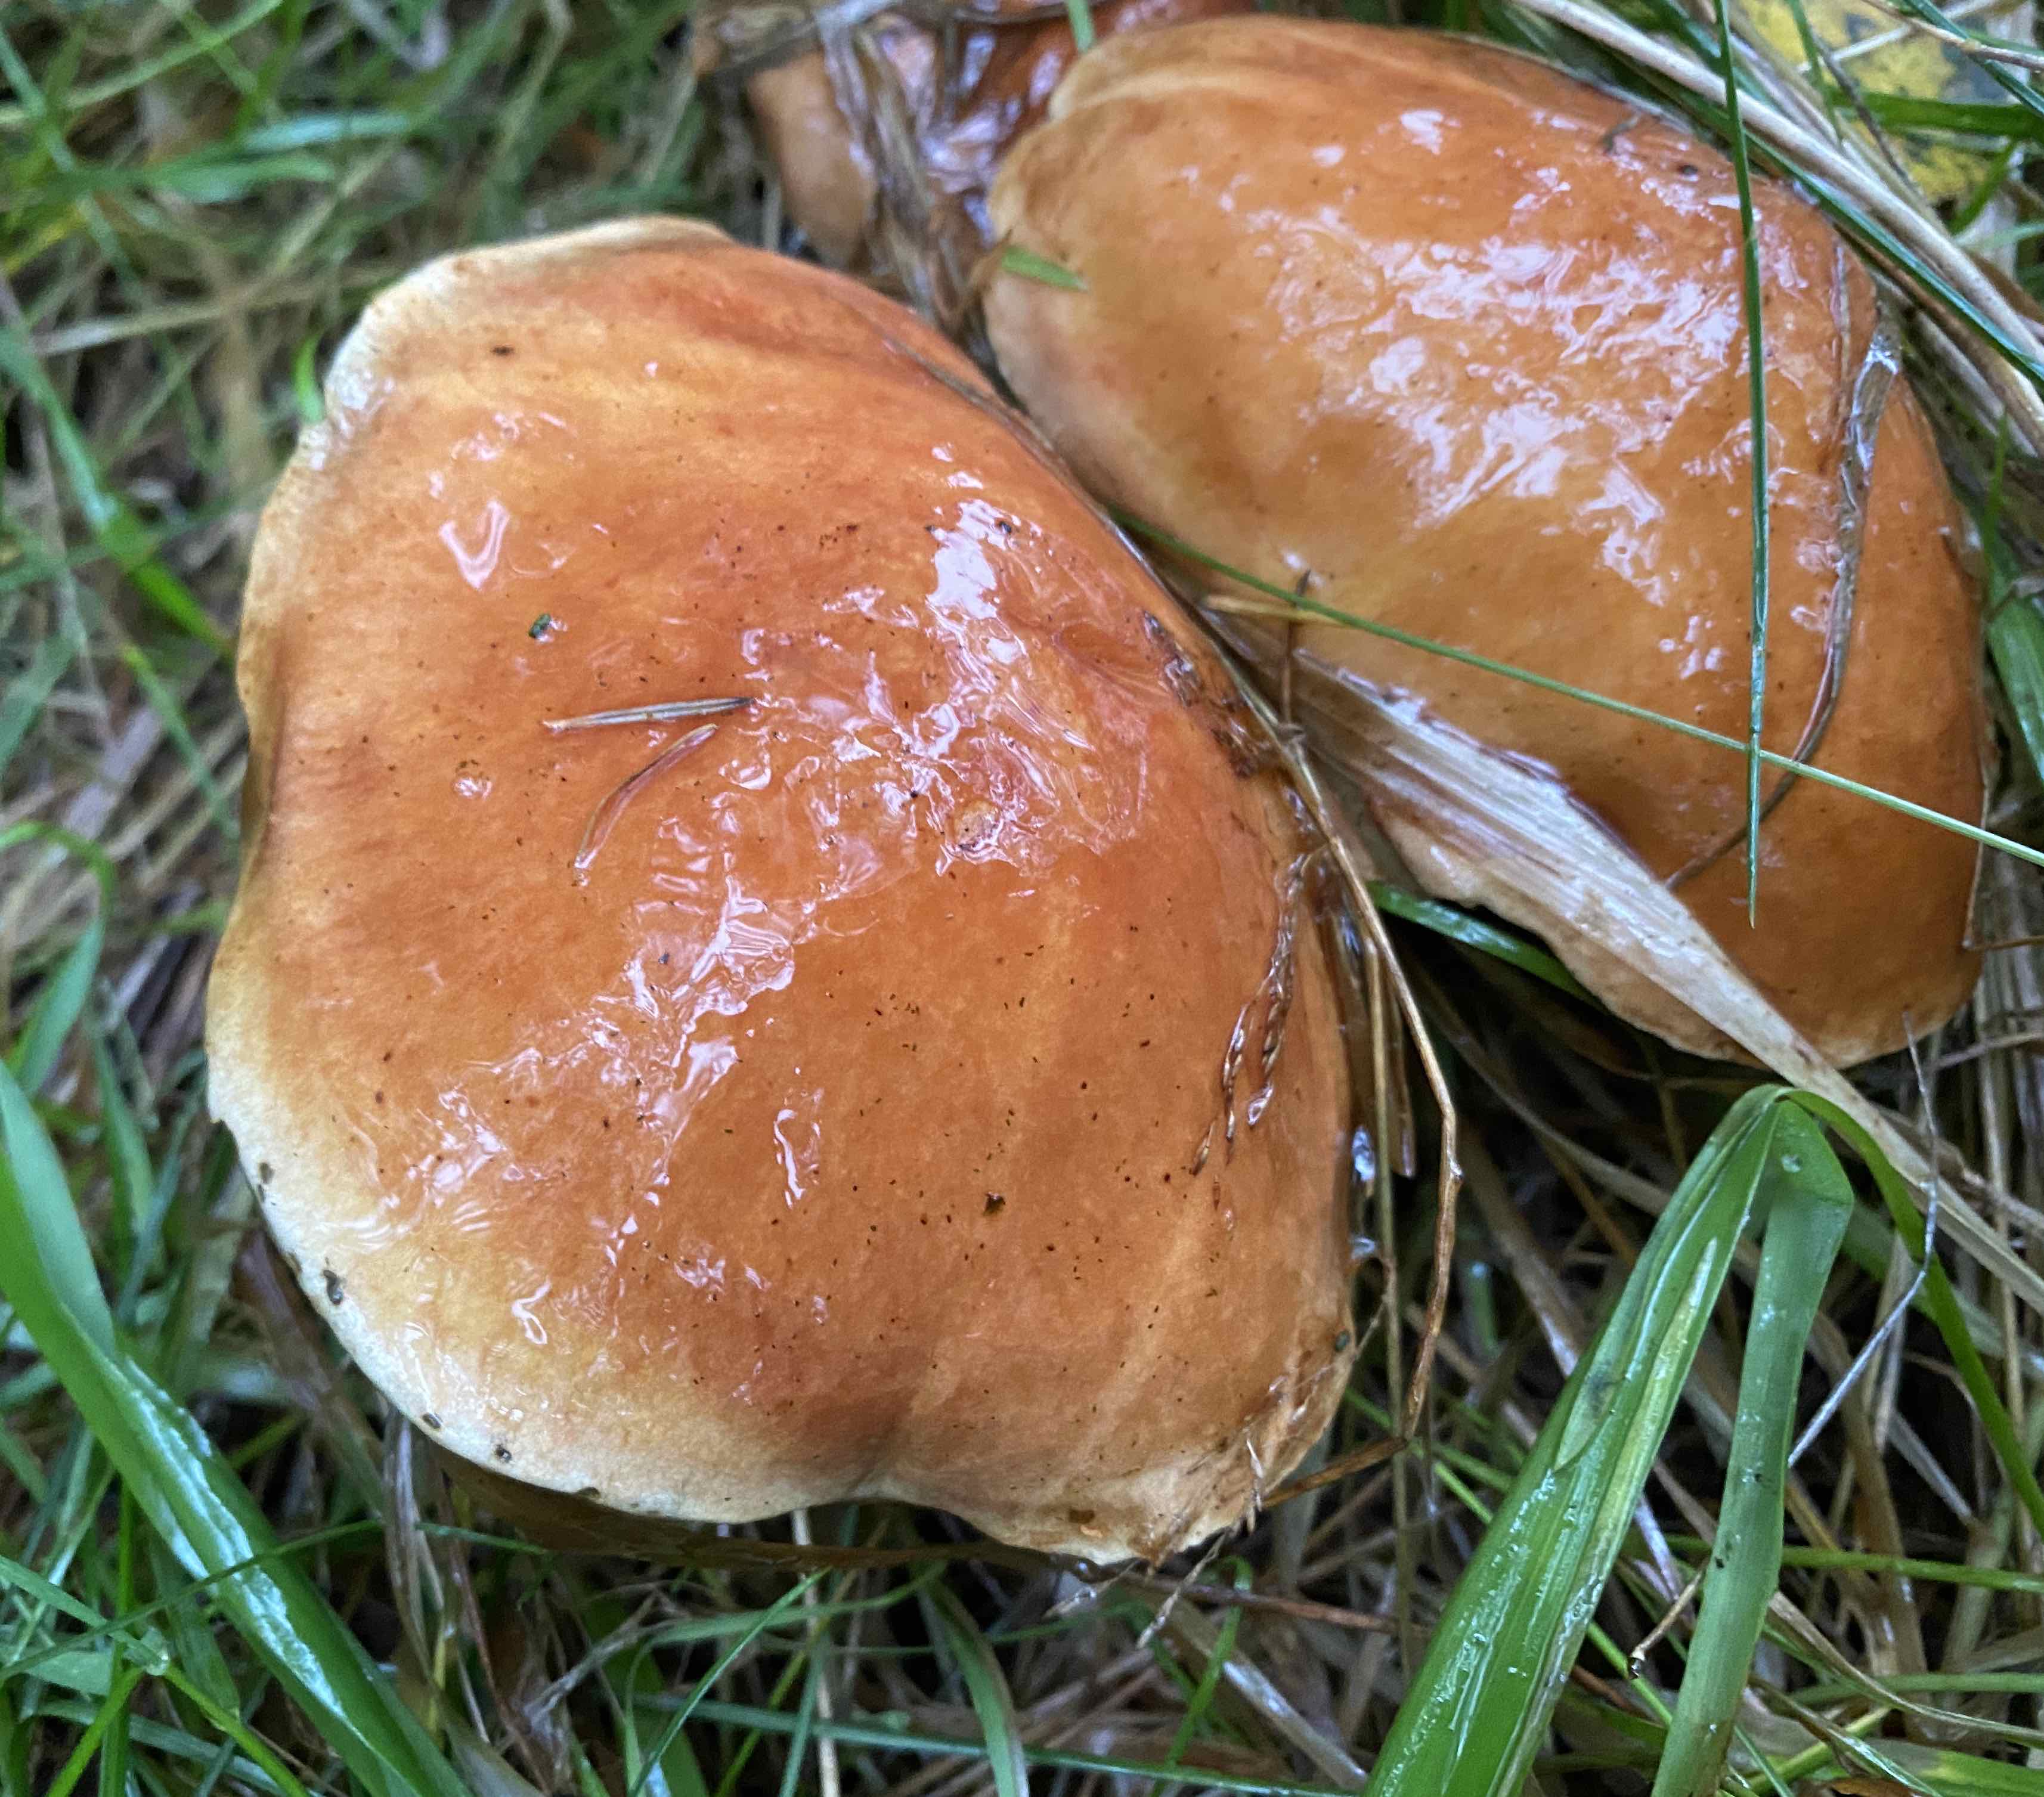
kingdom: Fungi
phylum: Basidiomycota
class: Agaricomycetes
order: Boletales
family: Suillaceae
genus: Suillus
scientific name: Suillus grevillei
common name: lærke-slimrørhat
